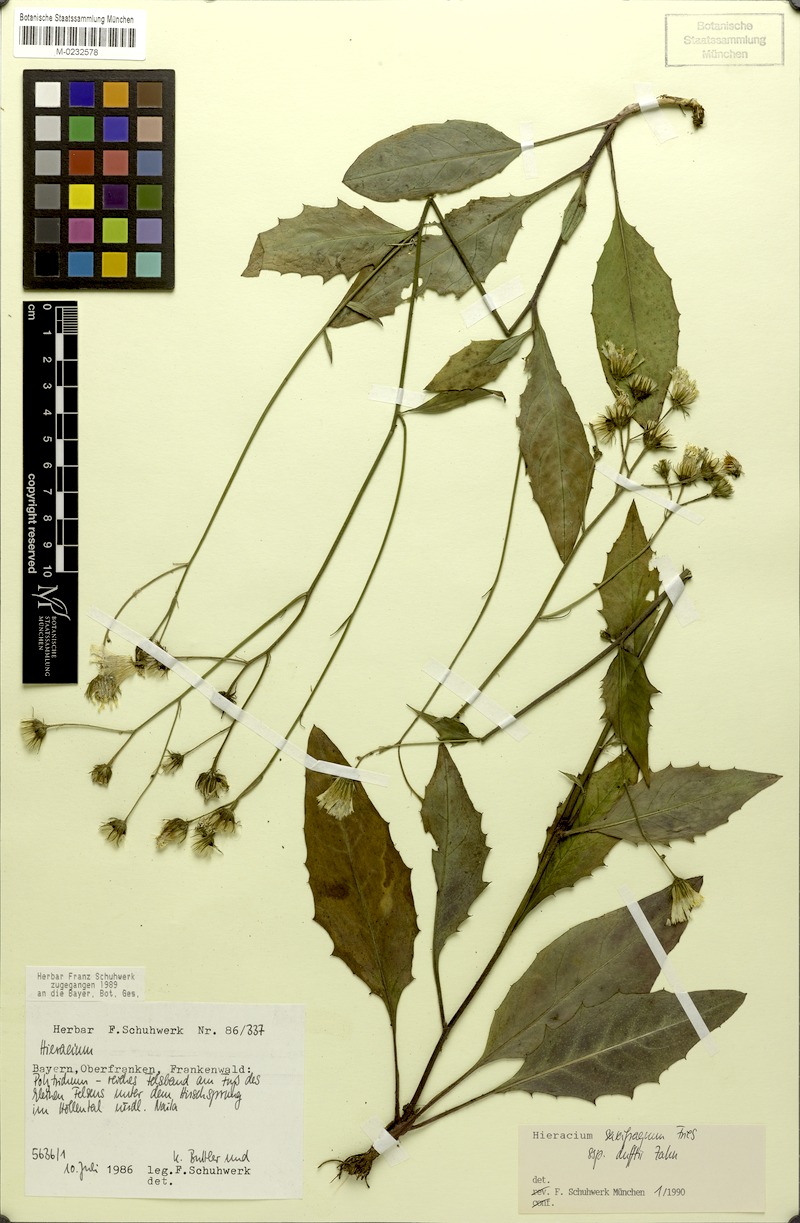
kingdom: Plantae
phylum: Tracheophyta
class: Magnoliopsida
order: Asterales
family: Asteraceae
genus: Hieracium
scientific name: Hieracium saxifragum
